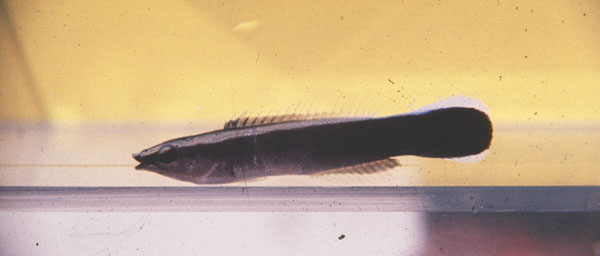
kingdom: Animalia
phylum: Chordata
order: Perciformes
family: Labridae
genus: Labroides
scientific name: Labroides dimidiatus
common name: Blue diesel wrasse
